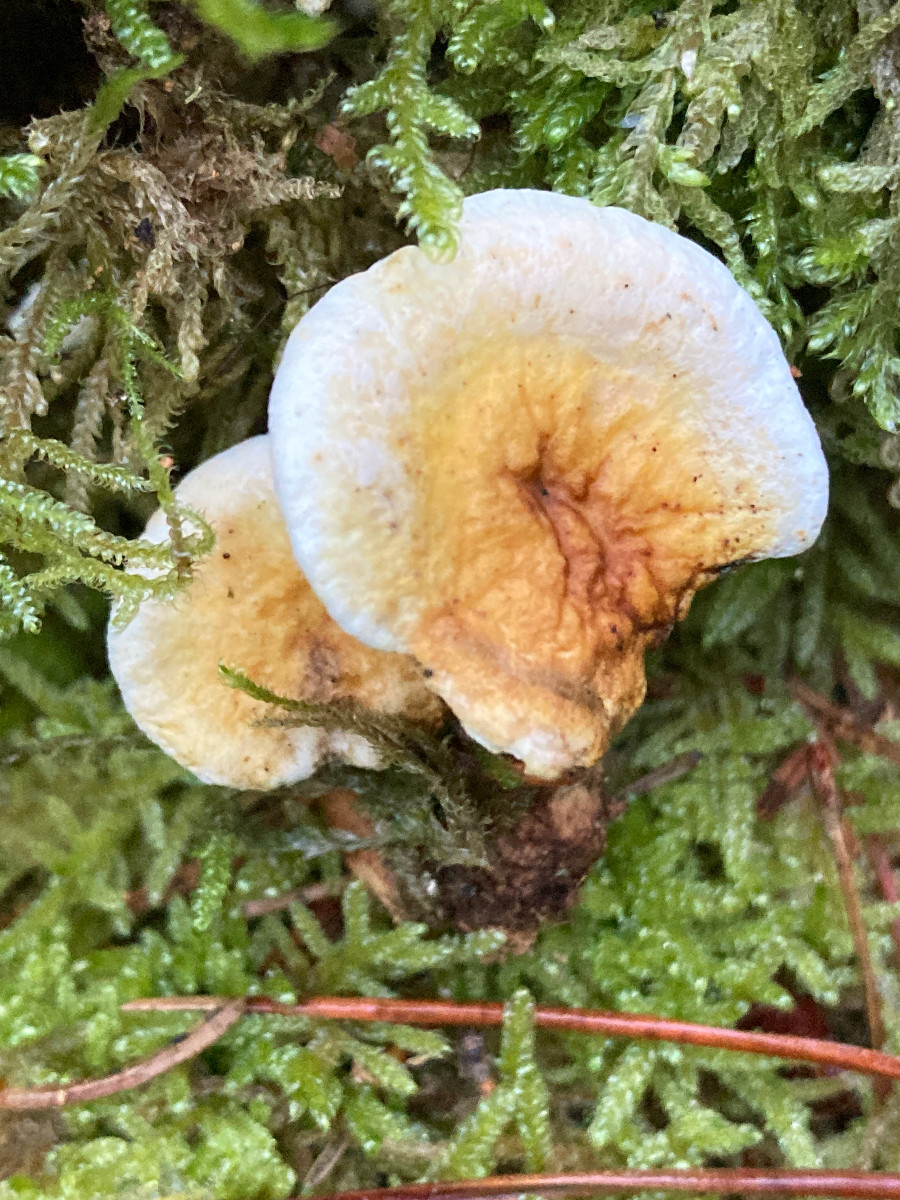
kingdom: Fungi
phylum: Basidiomycota
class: Agaricomycetes
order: Boletales
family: Hygrophoropsidaceae
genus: Hygrophoropsis
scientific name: Hygrophoropsis pallida
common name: bleg orangekantarel
